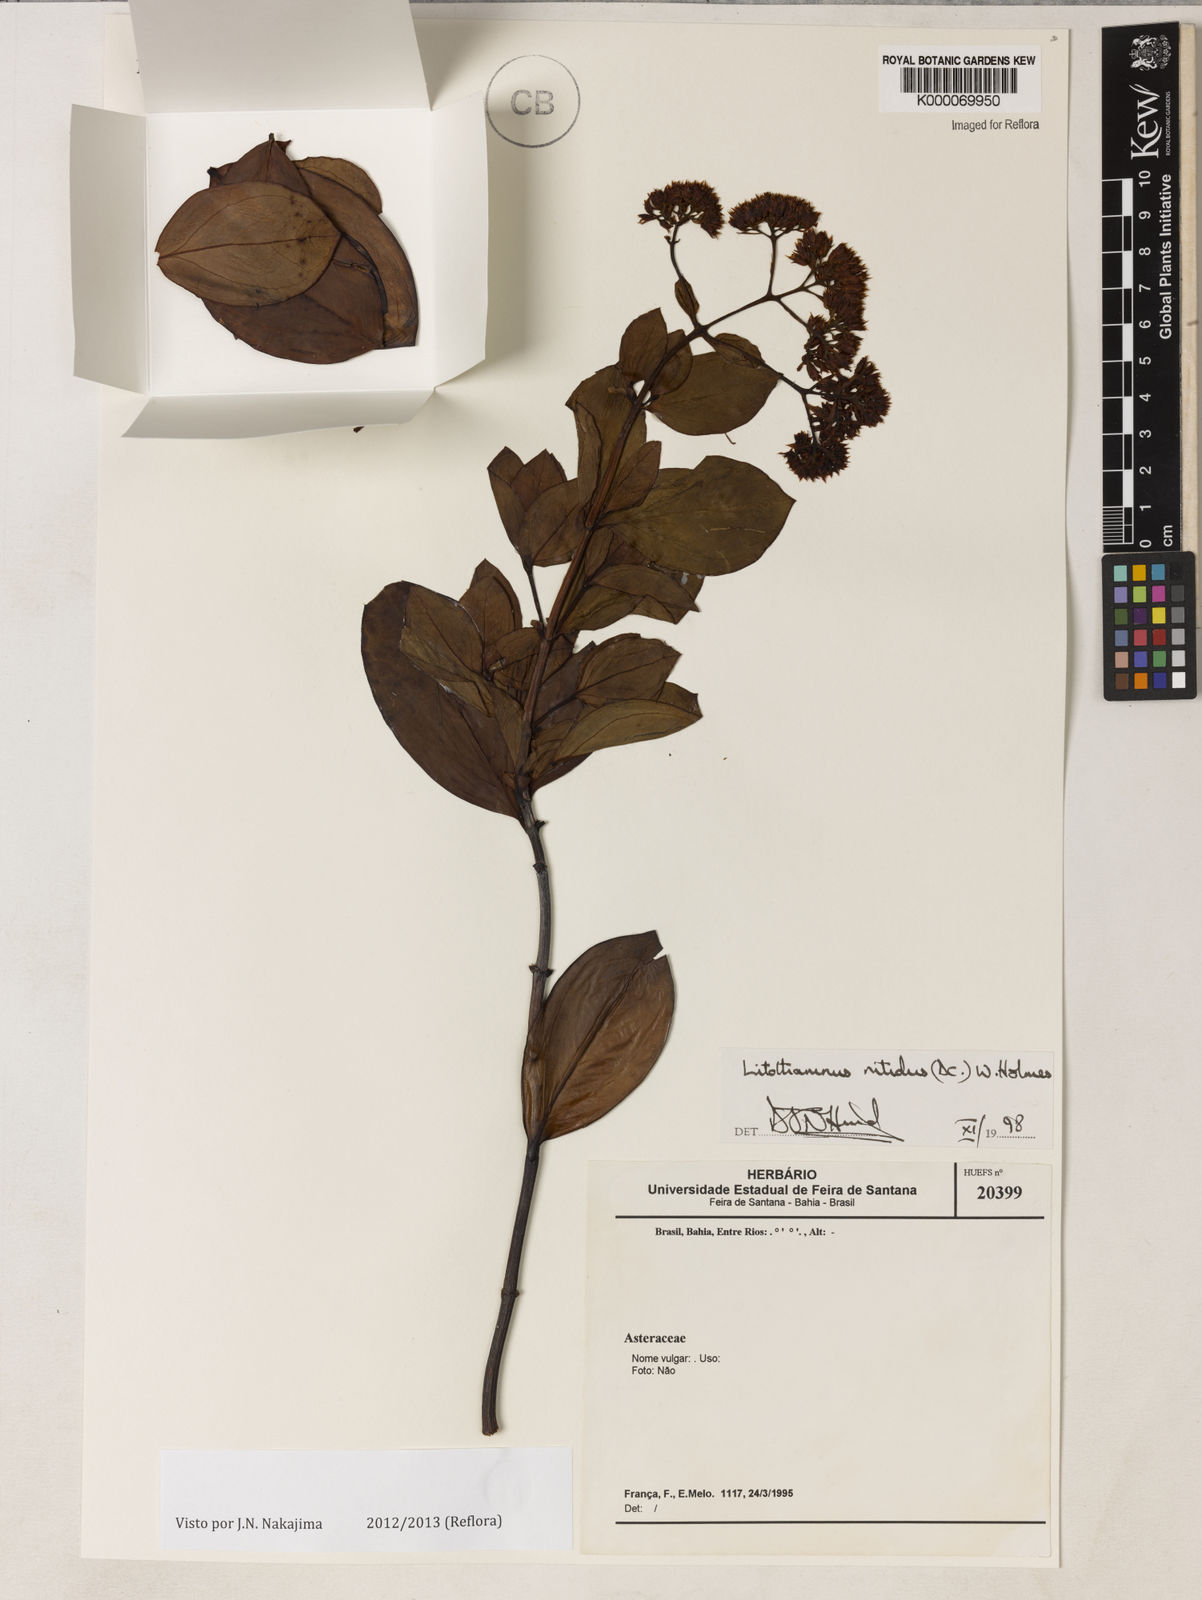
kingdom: Plantae
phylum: Tracheophyta
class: Magnoliopsida
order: Asterales
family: Asteraceae
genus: Litothamnus
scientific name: Litothamnus ellipticus
